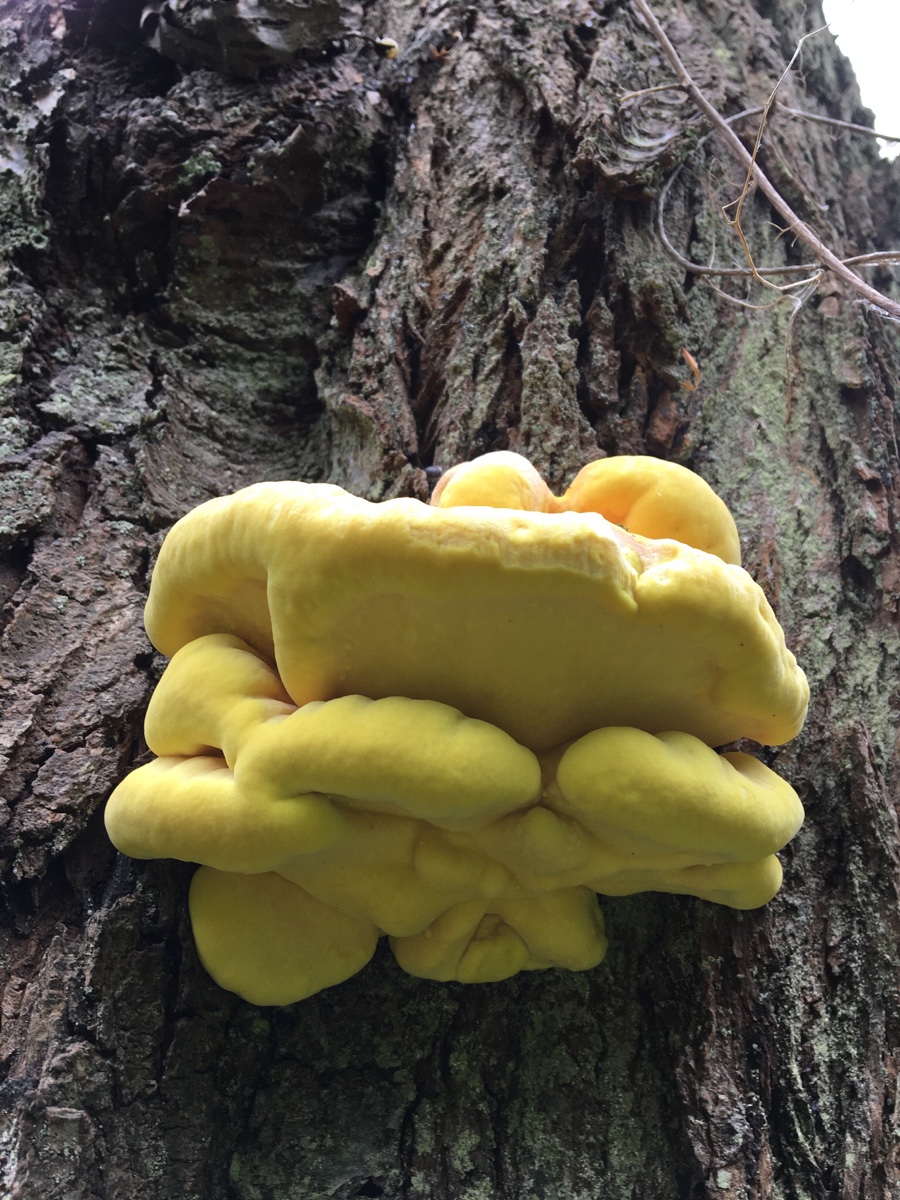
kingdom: Fungi
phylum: Basidiomycota
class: Agaricomycetes
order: Polyporales
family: Laetiporaceae
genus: Laetiporus
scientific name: Laetiporus sulphureus
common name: svovlporesvamp
